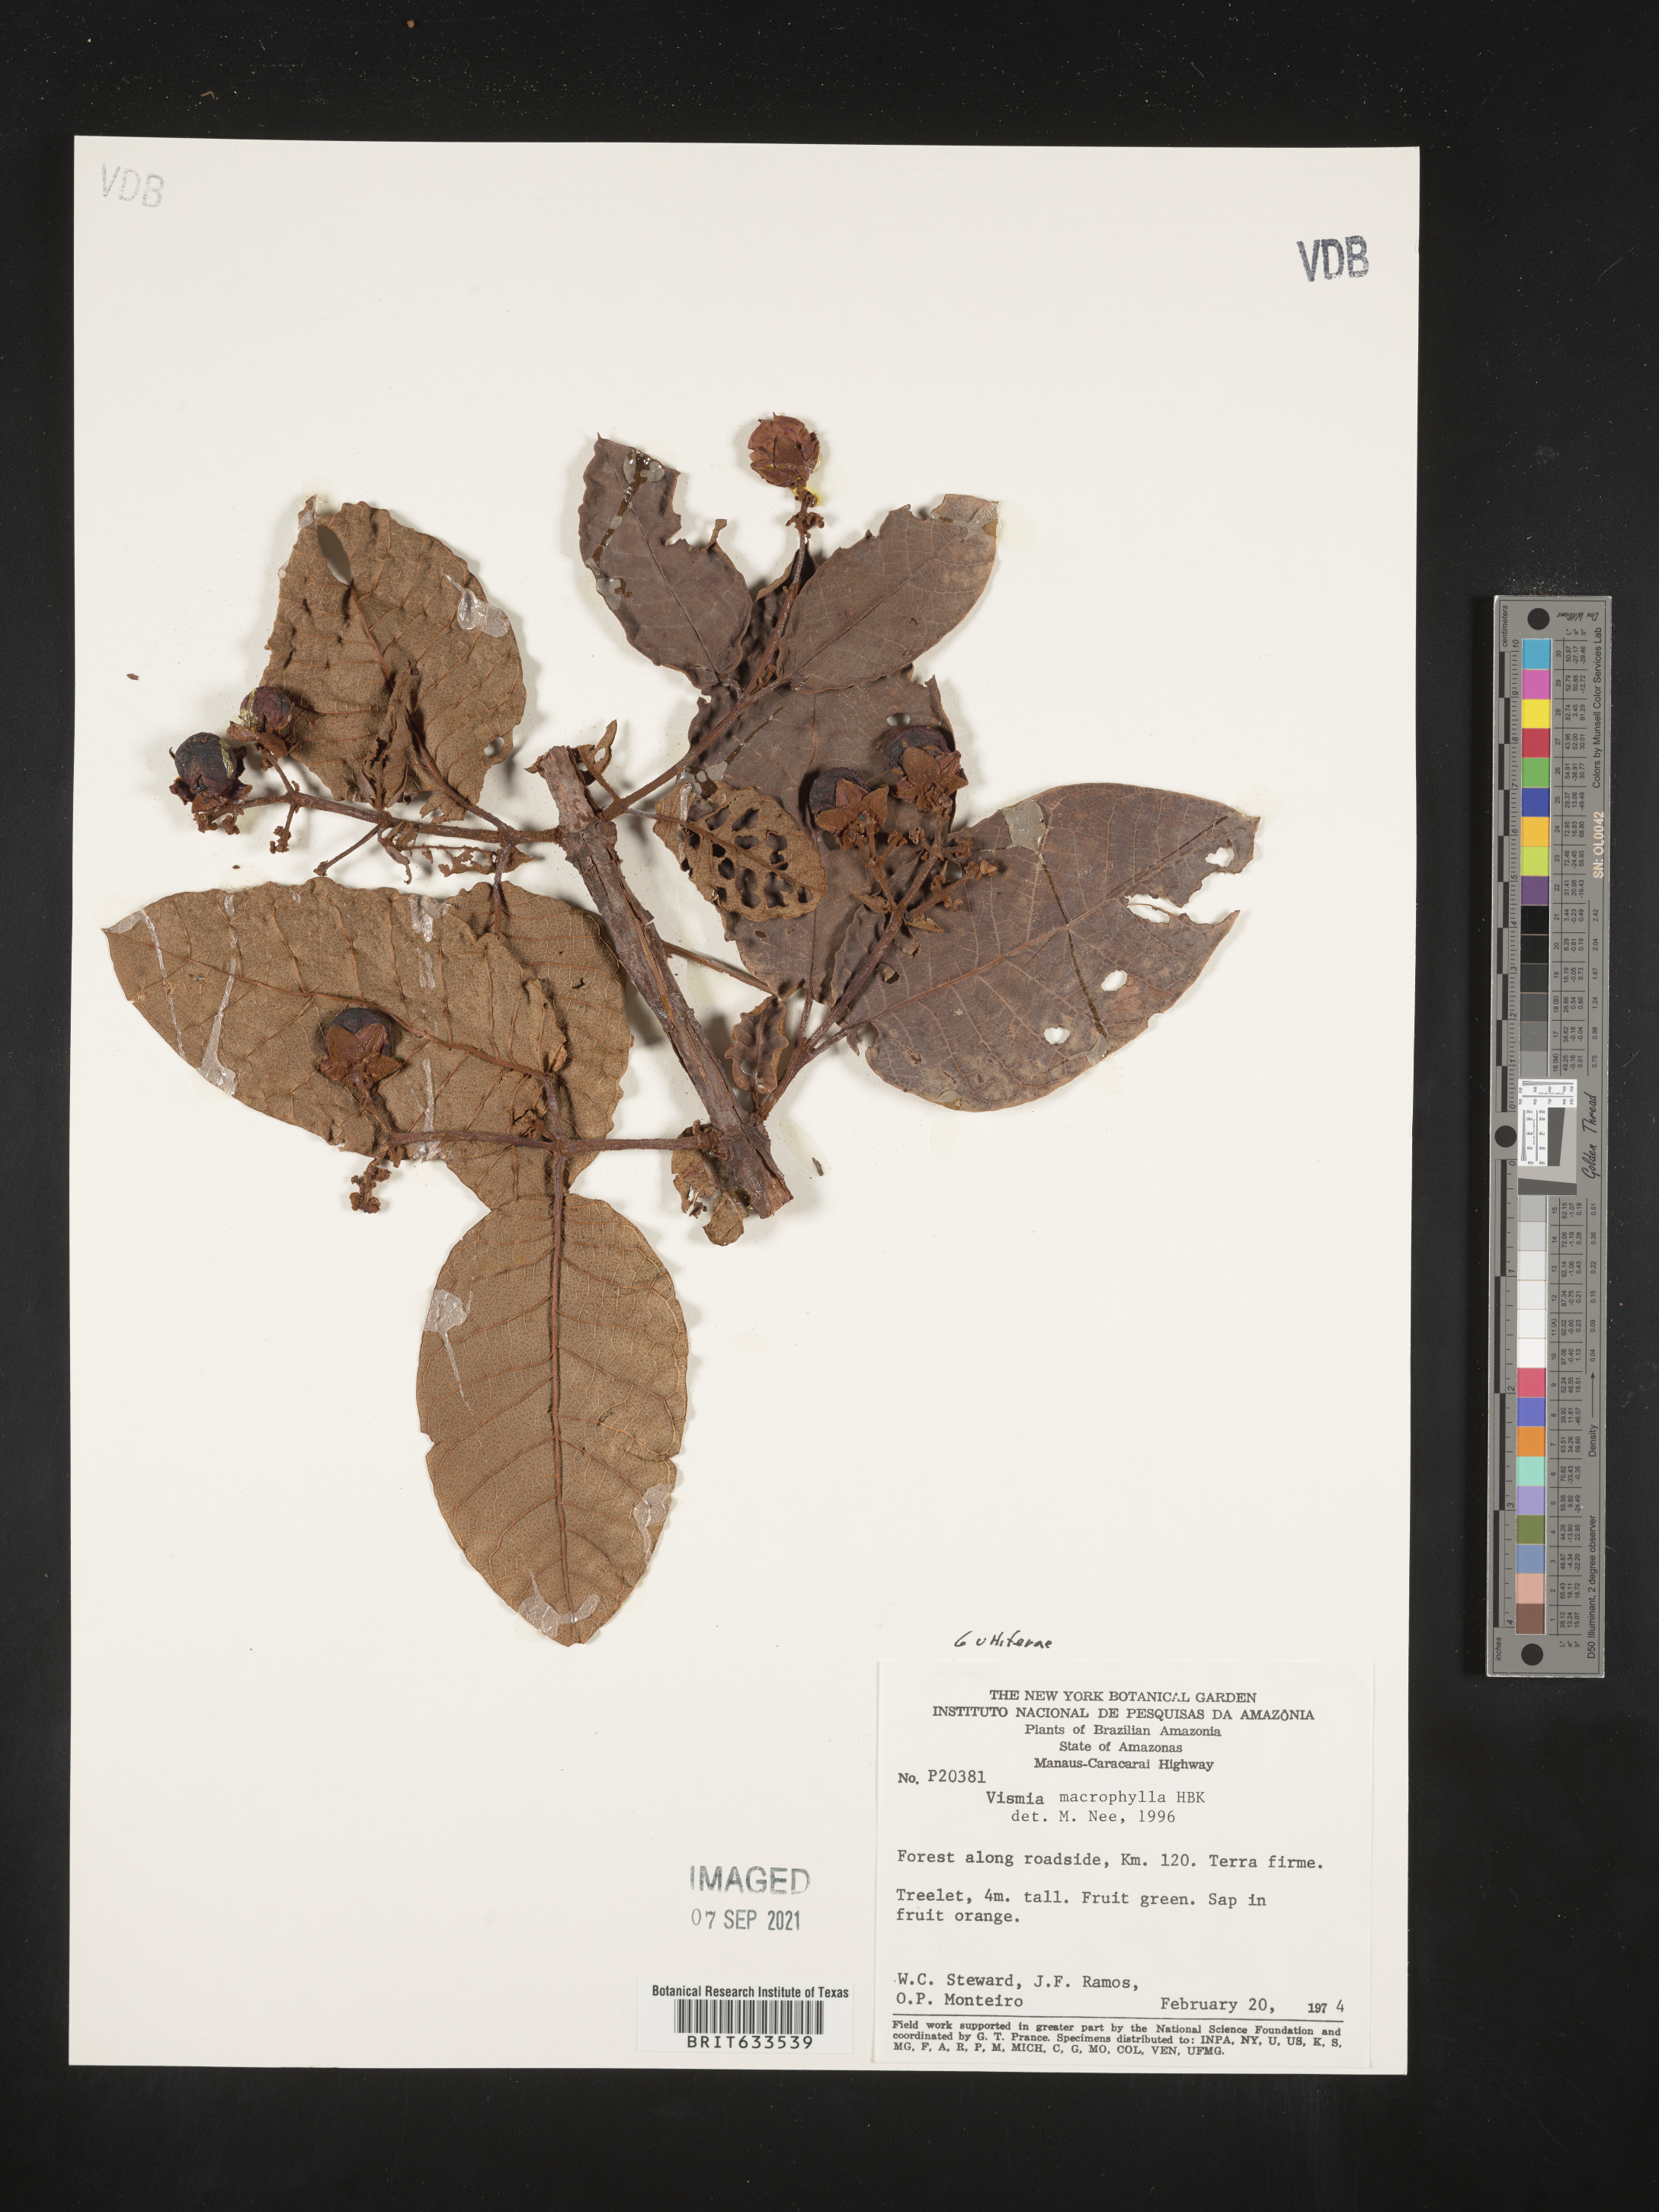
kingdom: Plantae
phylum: Tracheophyta
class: Magnoliopsida
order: Malpighiales
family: Hypericaceae
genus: Vismia
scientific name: Vismia
